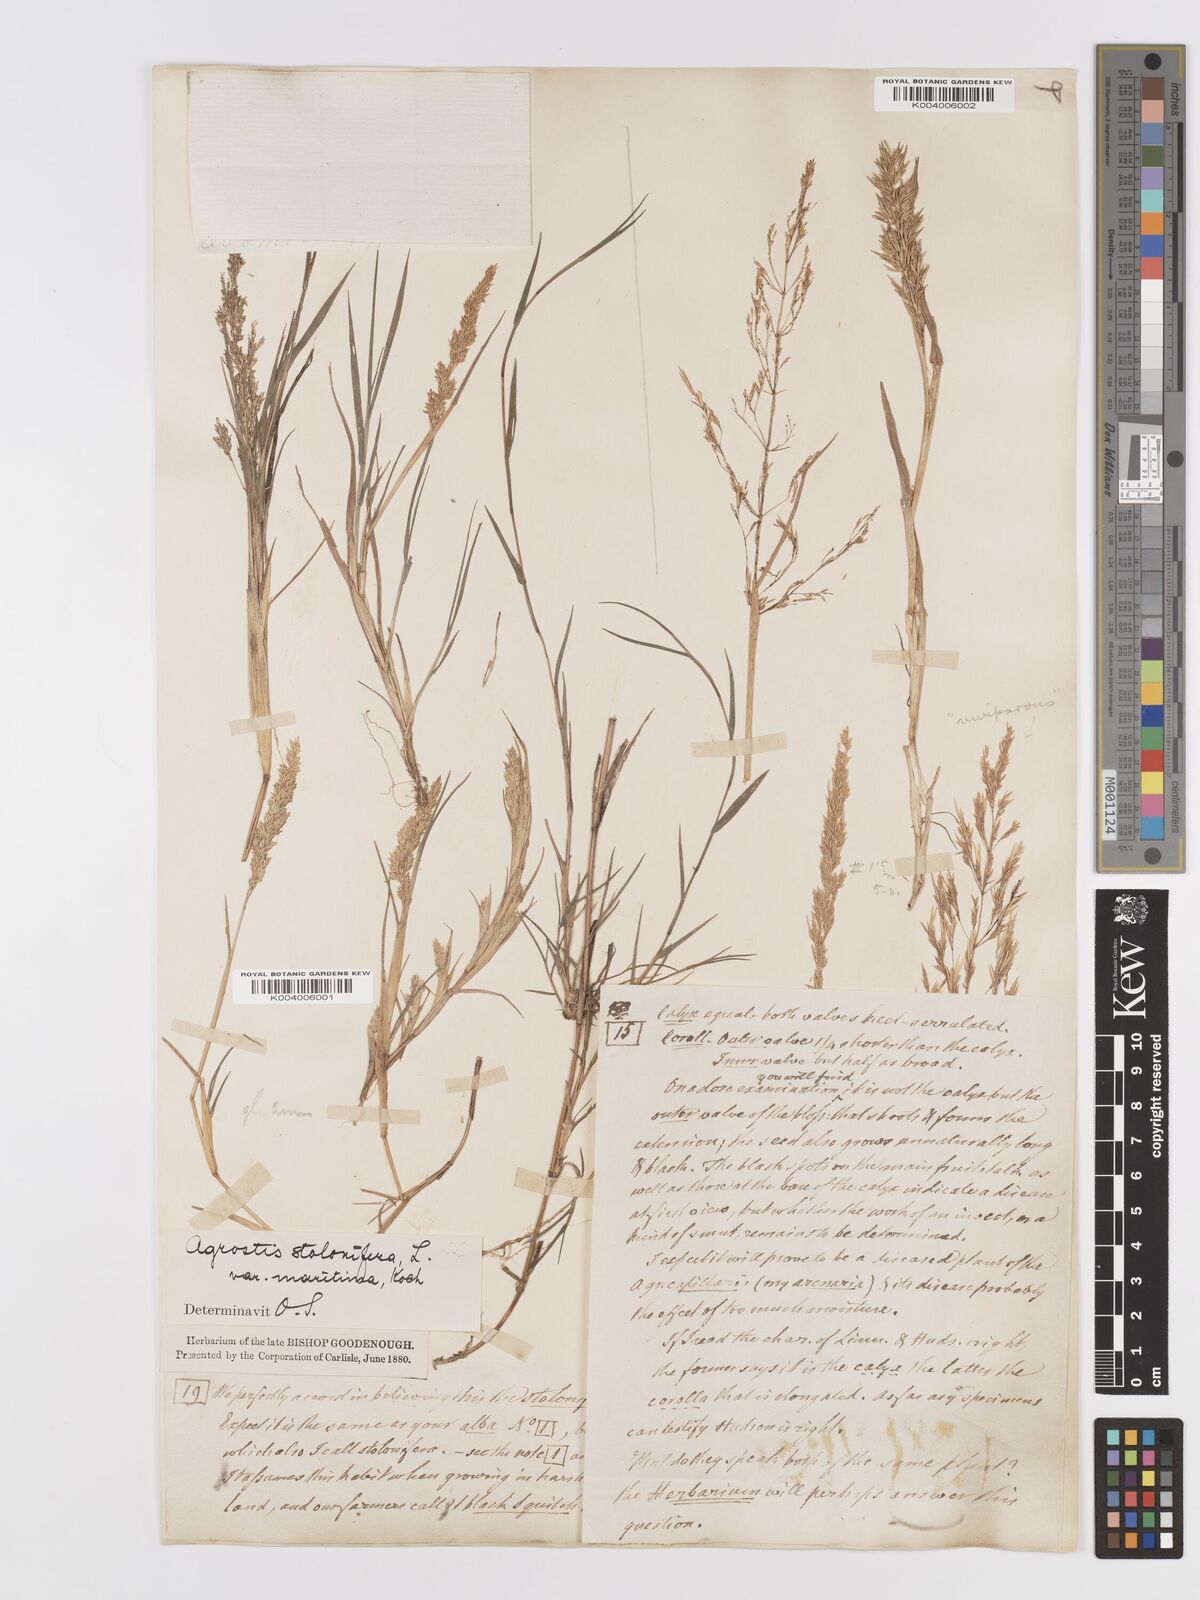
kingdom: Plantae
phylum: Tracheophyta
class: Liliopsida
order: Poales
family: Poaceae
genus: Agrostis
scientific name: Agrostis stolonifera
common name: Creeping bentgrass
